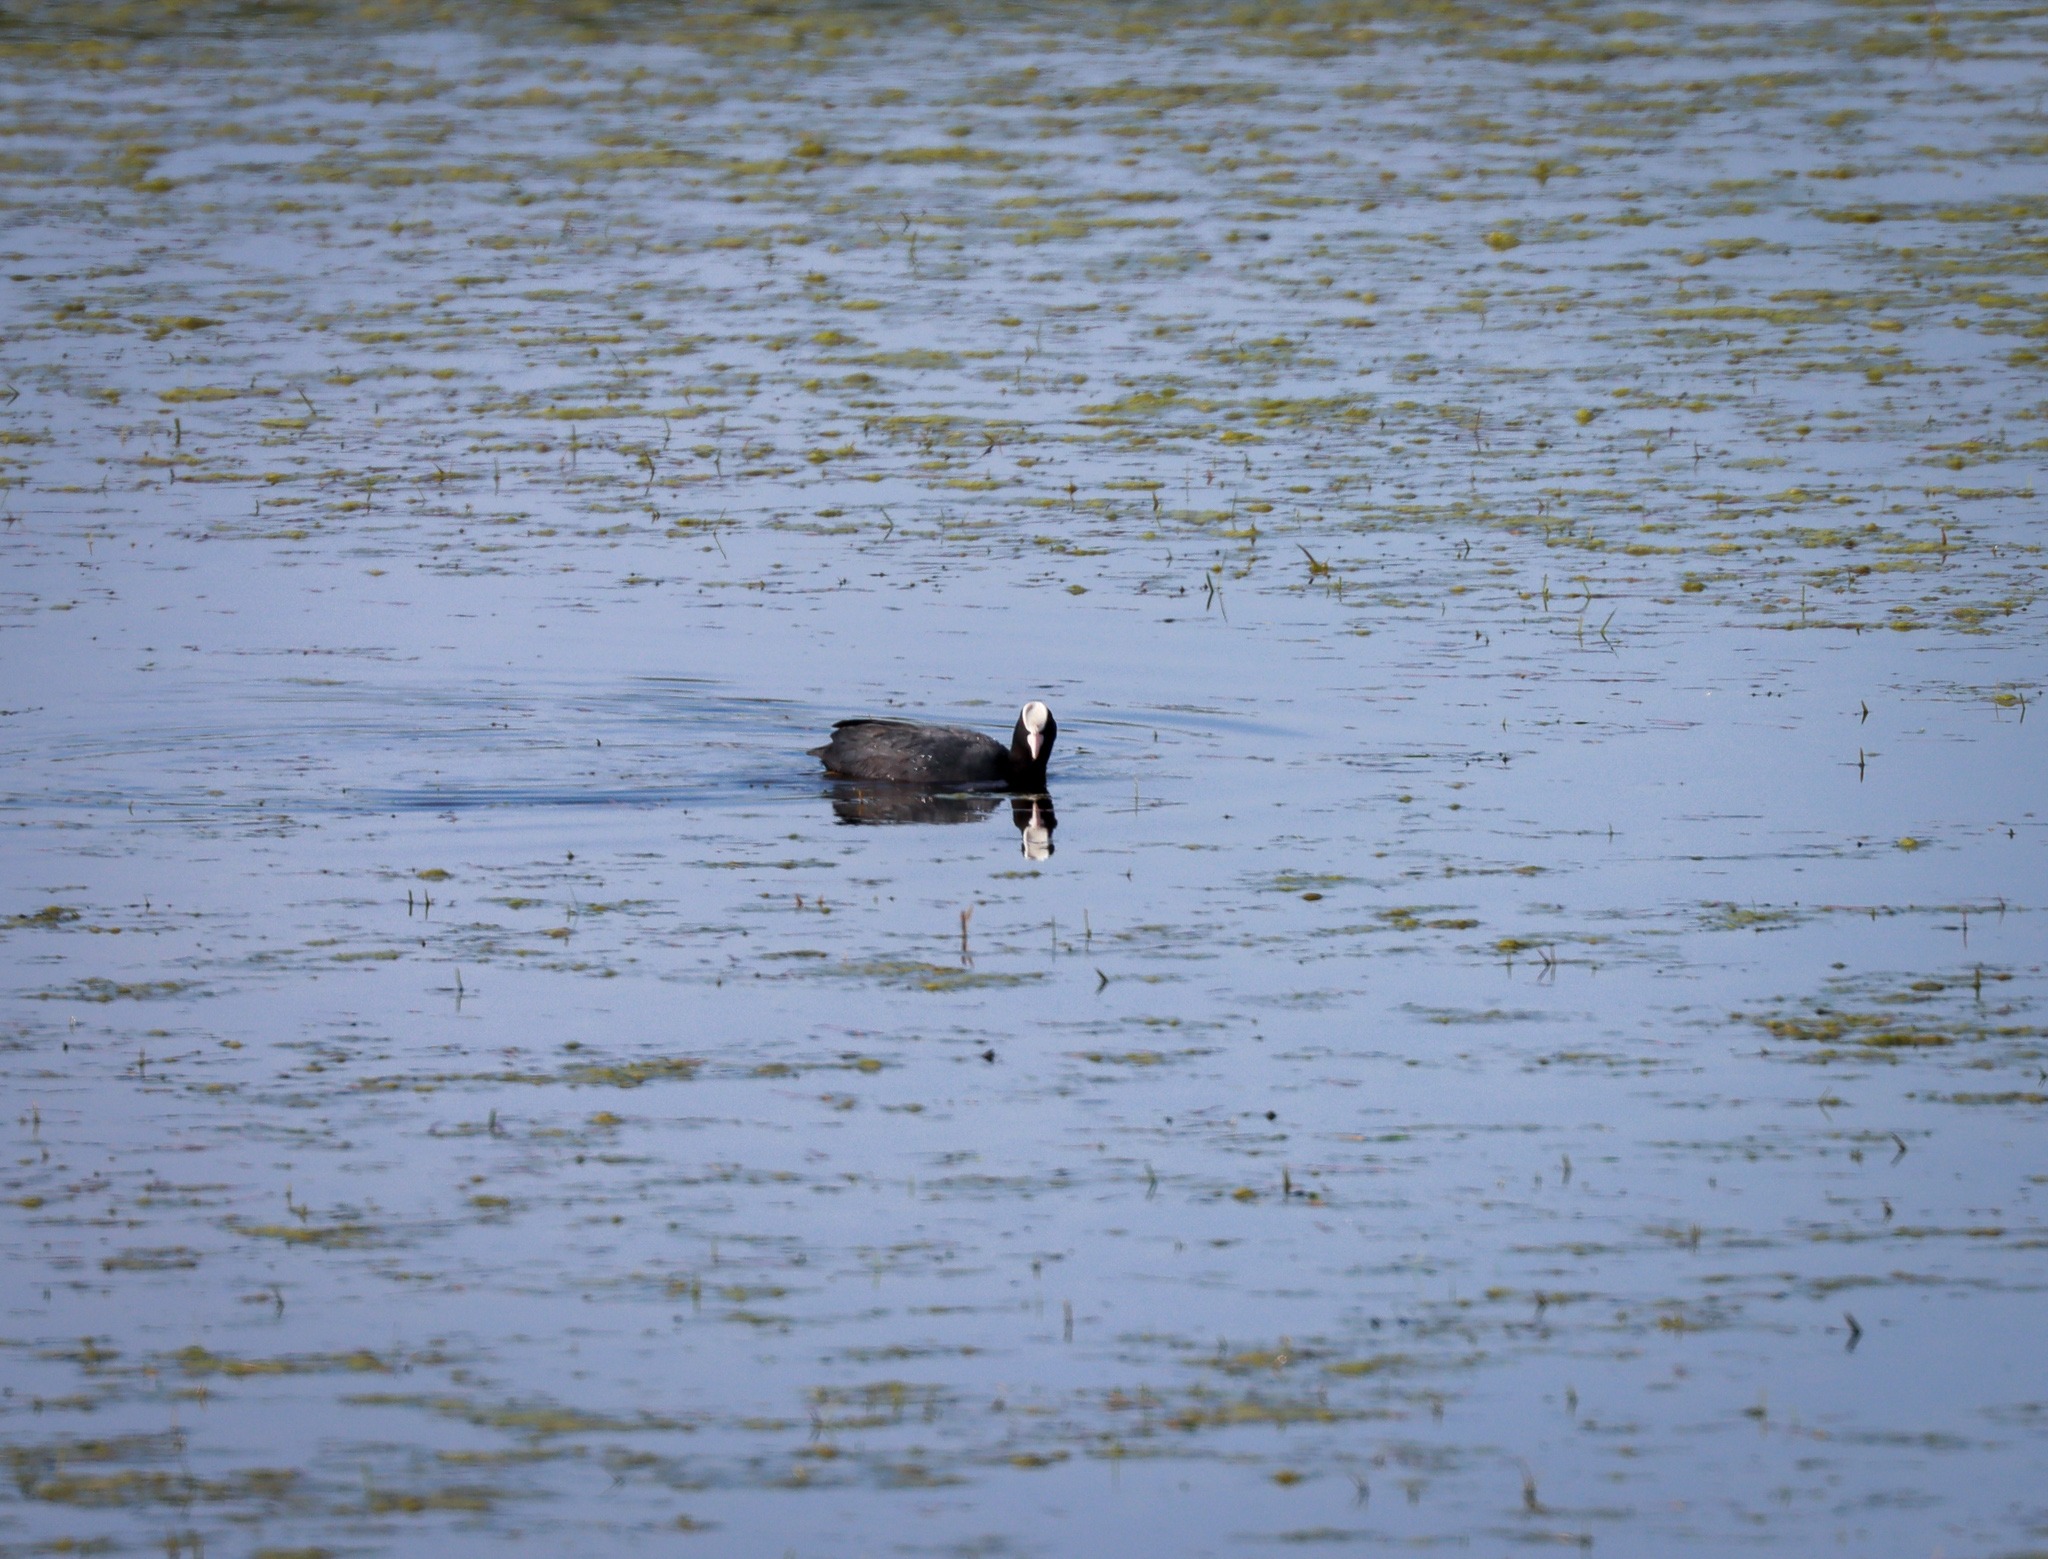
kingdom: Animalia
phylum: Chordata
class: Aves
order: Gruiformes
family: Rallidae
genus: Fulica
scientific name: Fulica atra
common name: Blishøne
